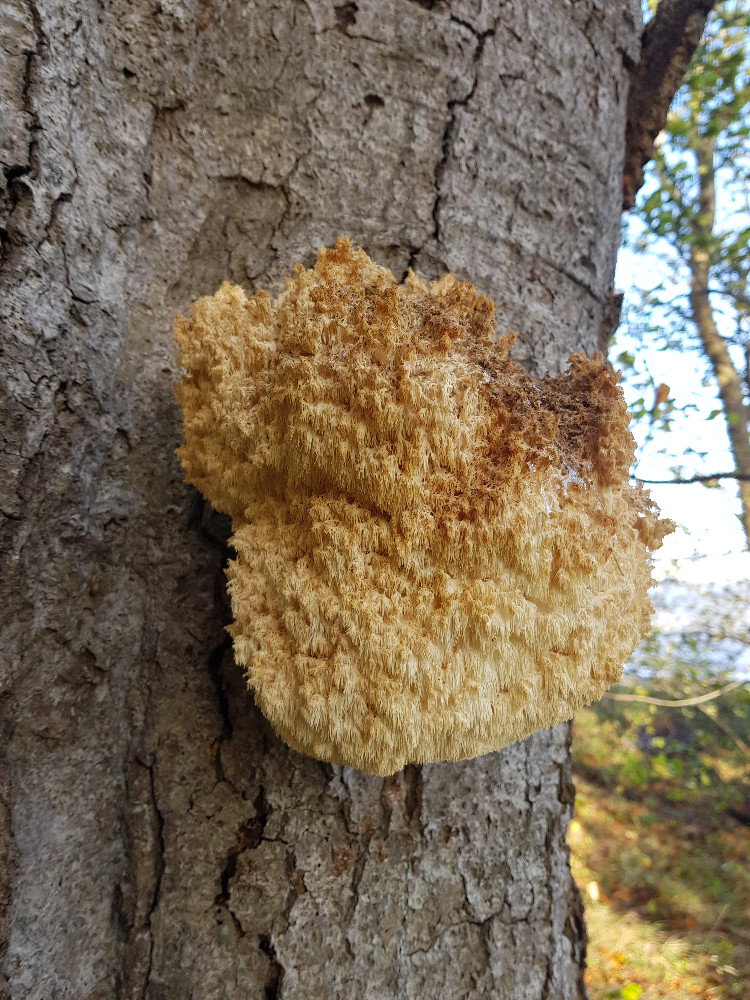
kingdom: Fungi
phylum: Basidiomycota
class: Agaricomycetes
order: Russulales
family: Hericiaceae
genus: Hericium
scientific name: Hericium coralloides
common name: koralpigsvamp
